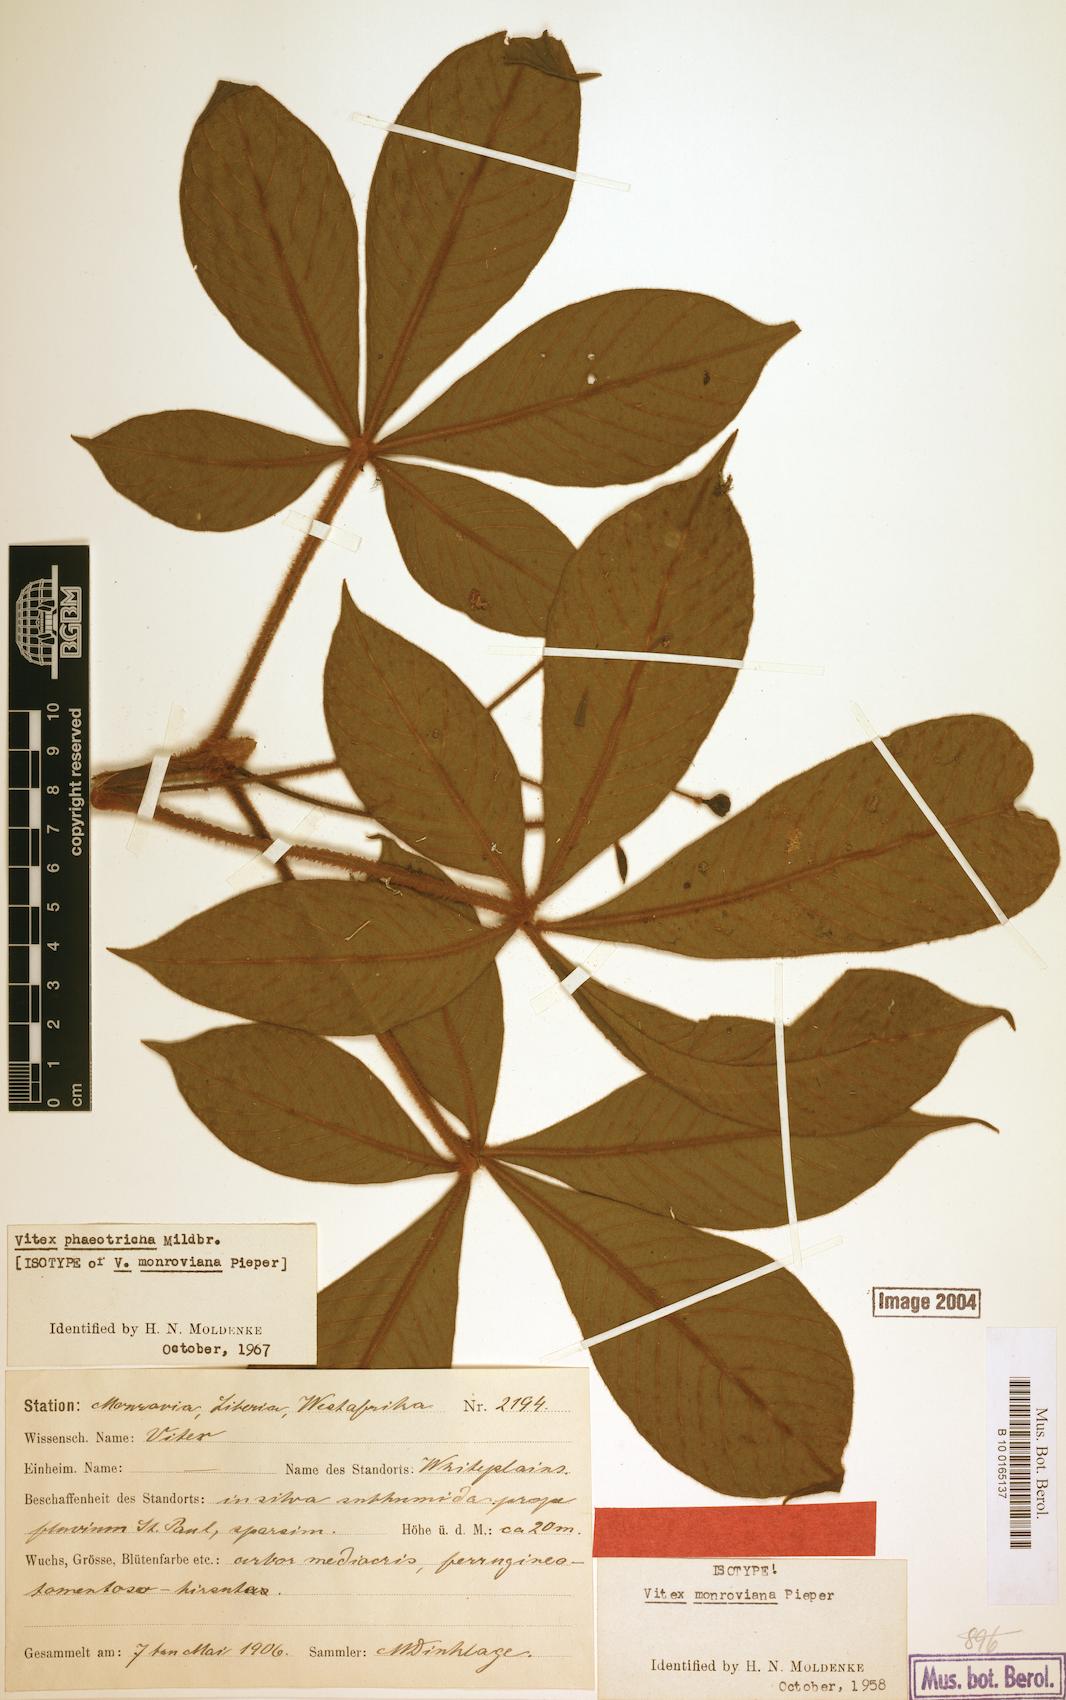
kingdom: Plantae
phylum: Tracheophyta
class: Magnoliopsida
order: Lamiales
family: Lamiaceae
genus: Vitex
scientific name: Vitex congolensis
